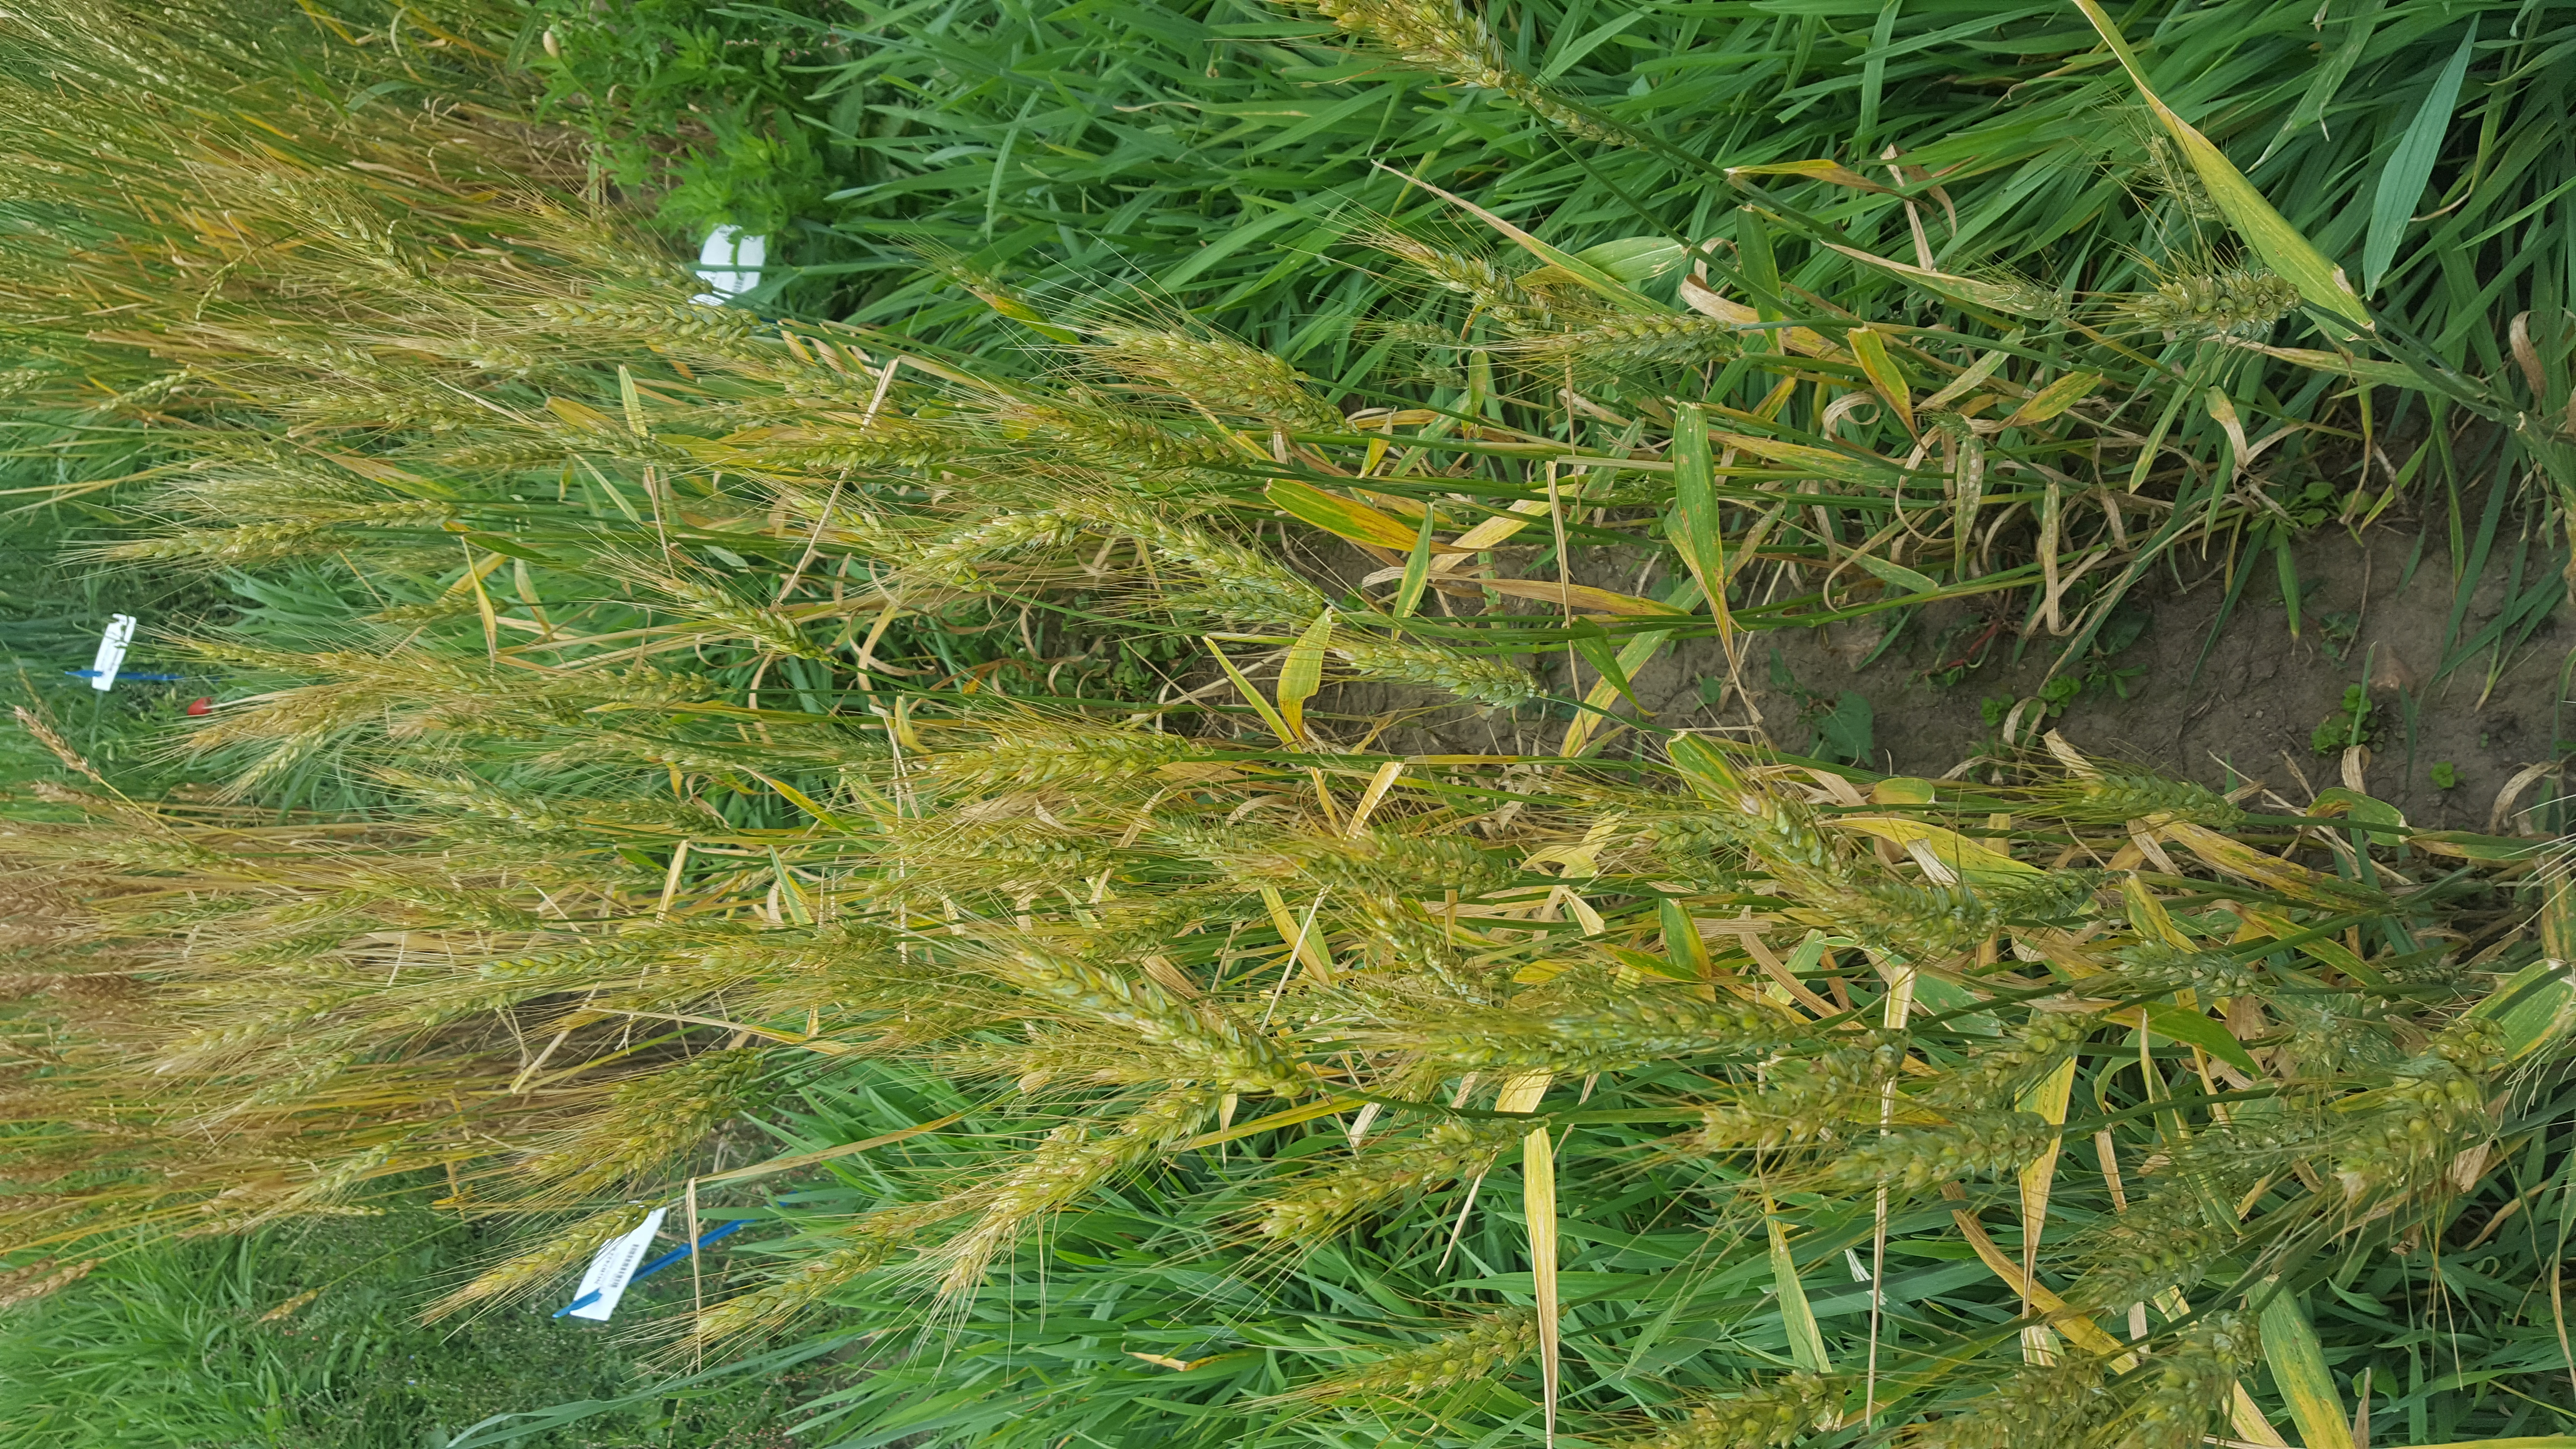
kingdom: Plantae
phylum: Tracheophyta
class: Liliopsida
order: Poales
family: Poaceae
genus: Triticum
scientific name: Triticum aestivum
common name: Common wheat
